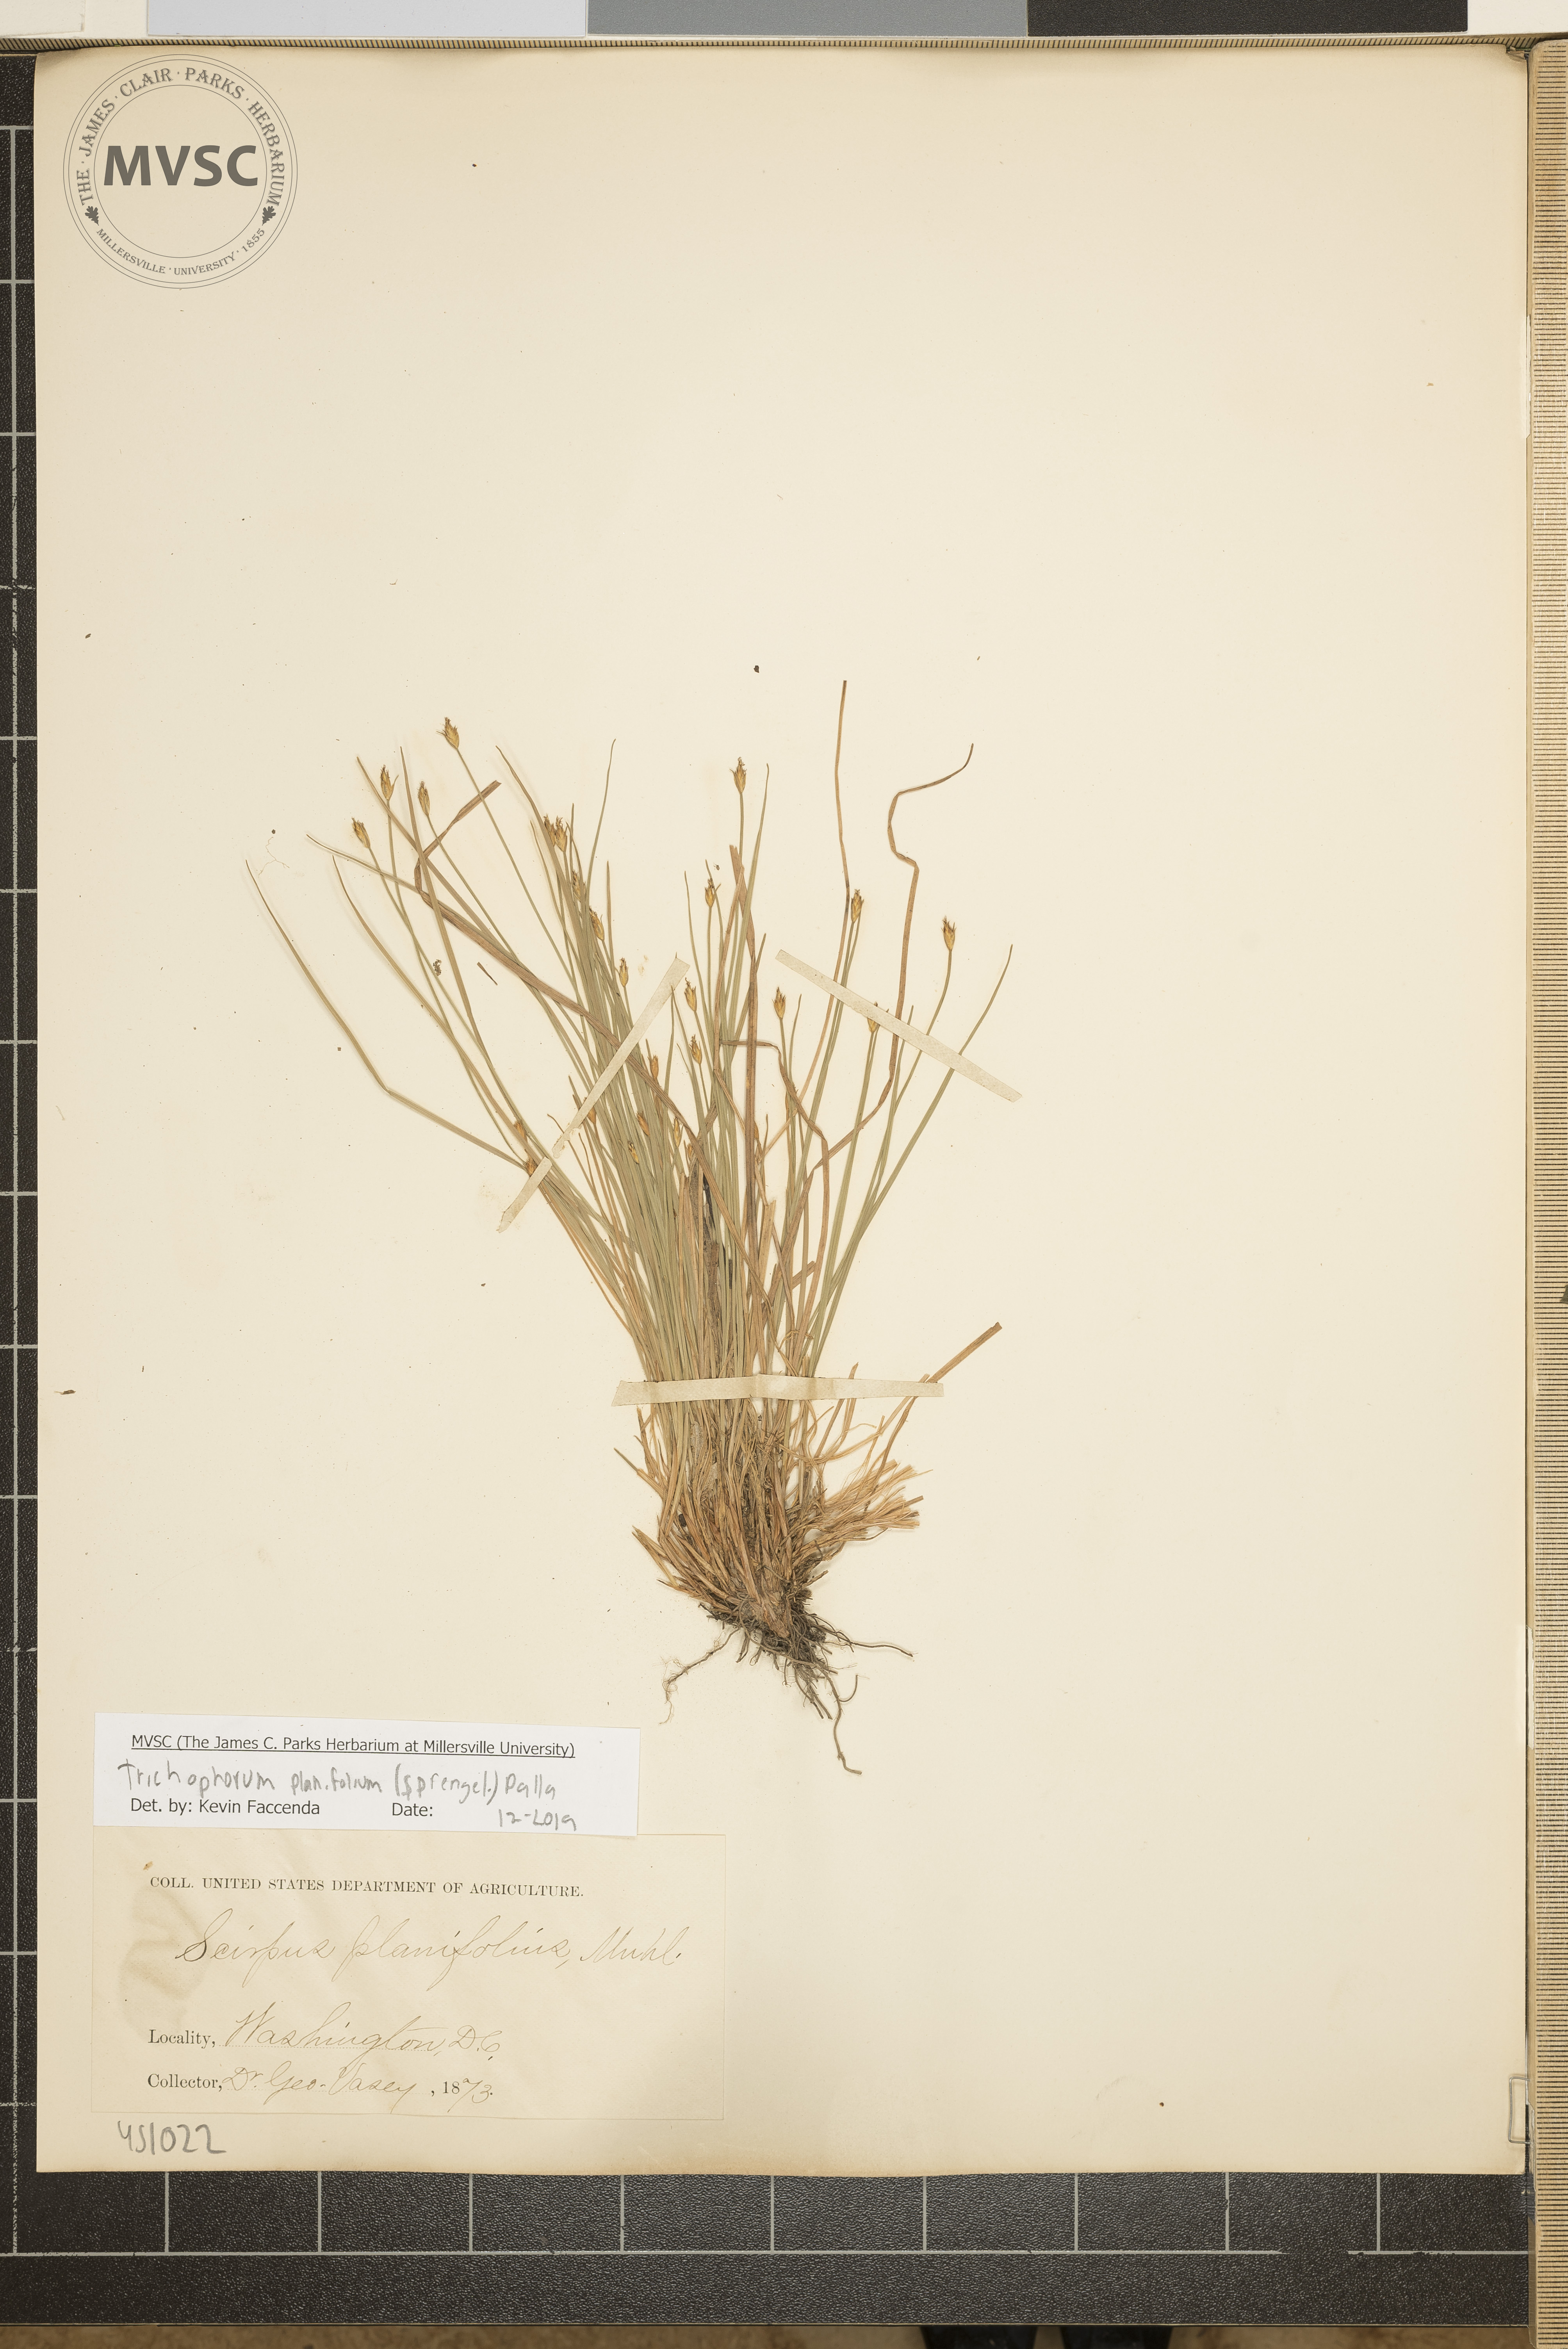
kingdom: Plantae
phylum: Tracheophyta
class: Liliopsida
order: Poales
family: Cyperaceae
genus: Trichophorum
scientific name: Trichophorum planifolium
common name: Bashful bulrush
